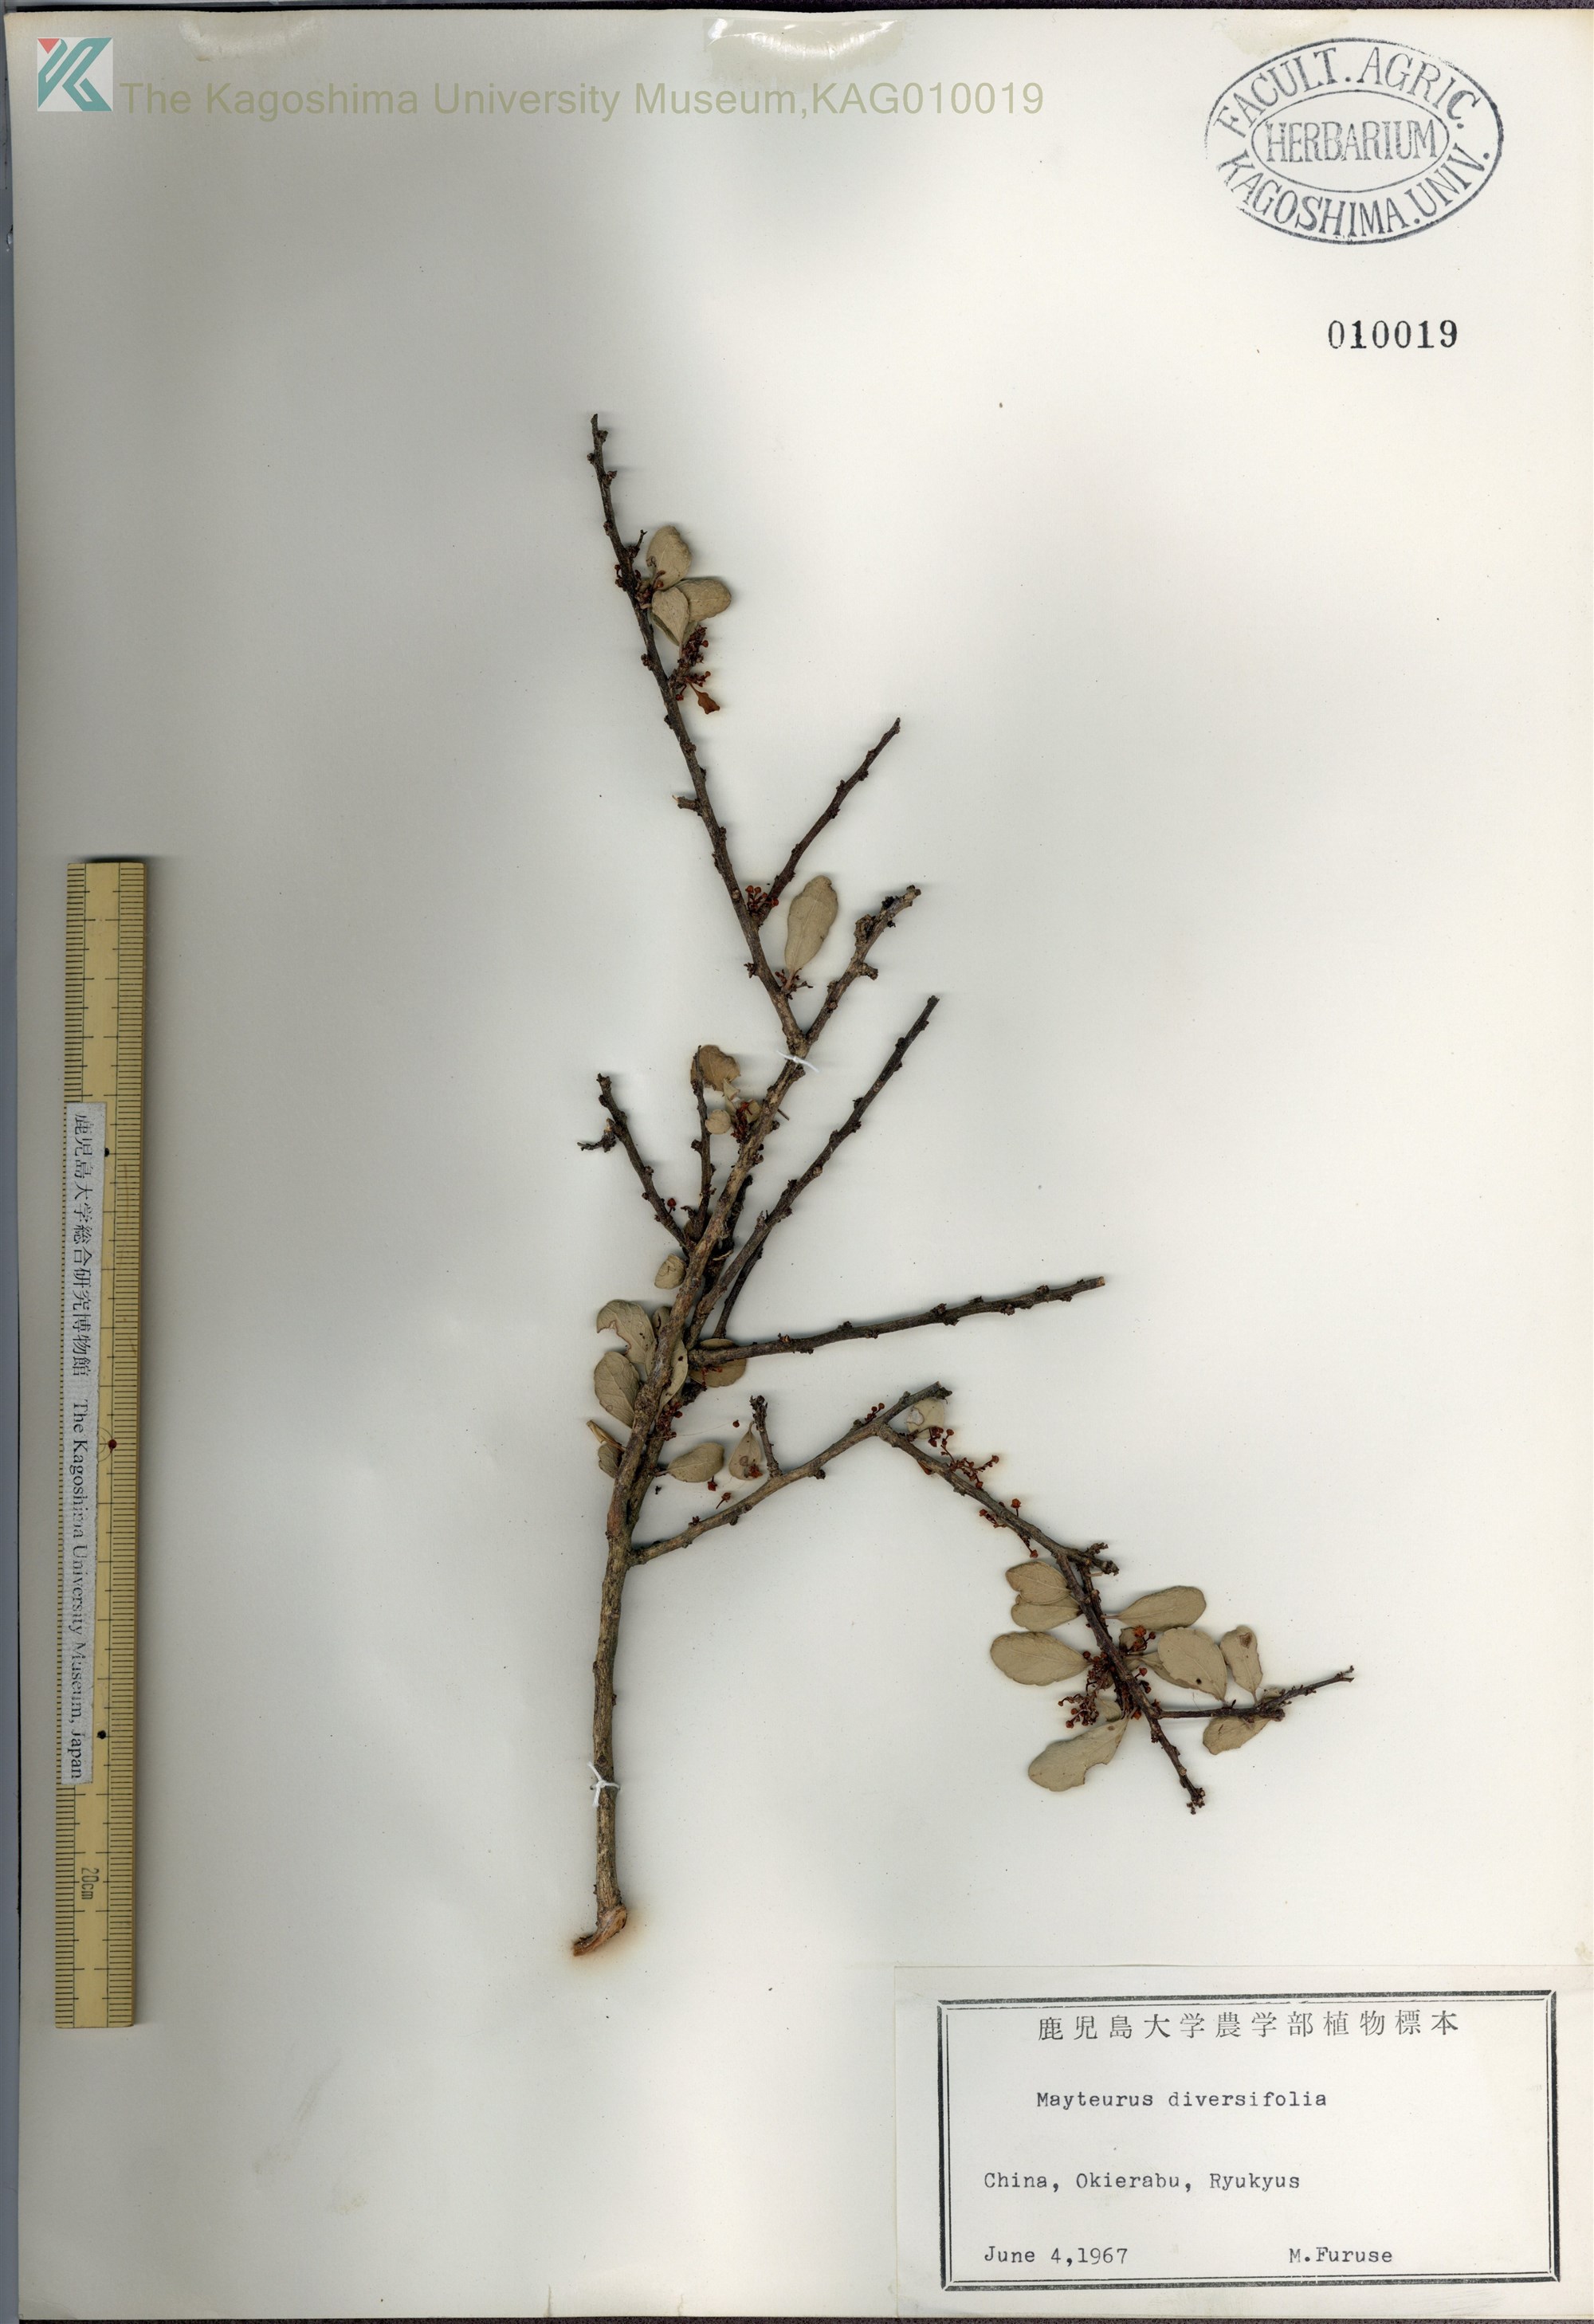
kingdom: Plantae
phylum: Tracheophyta
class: Magnoliopsida
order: Celastrales
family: Celastraceae
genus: Gymnosporia
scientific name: Gymnosporia diversifolia
